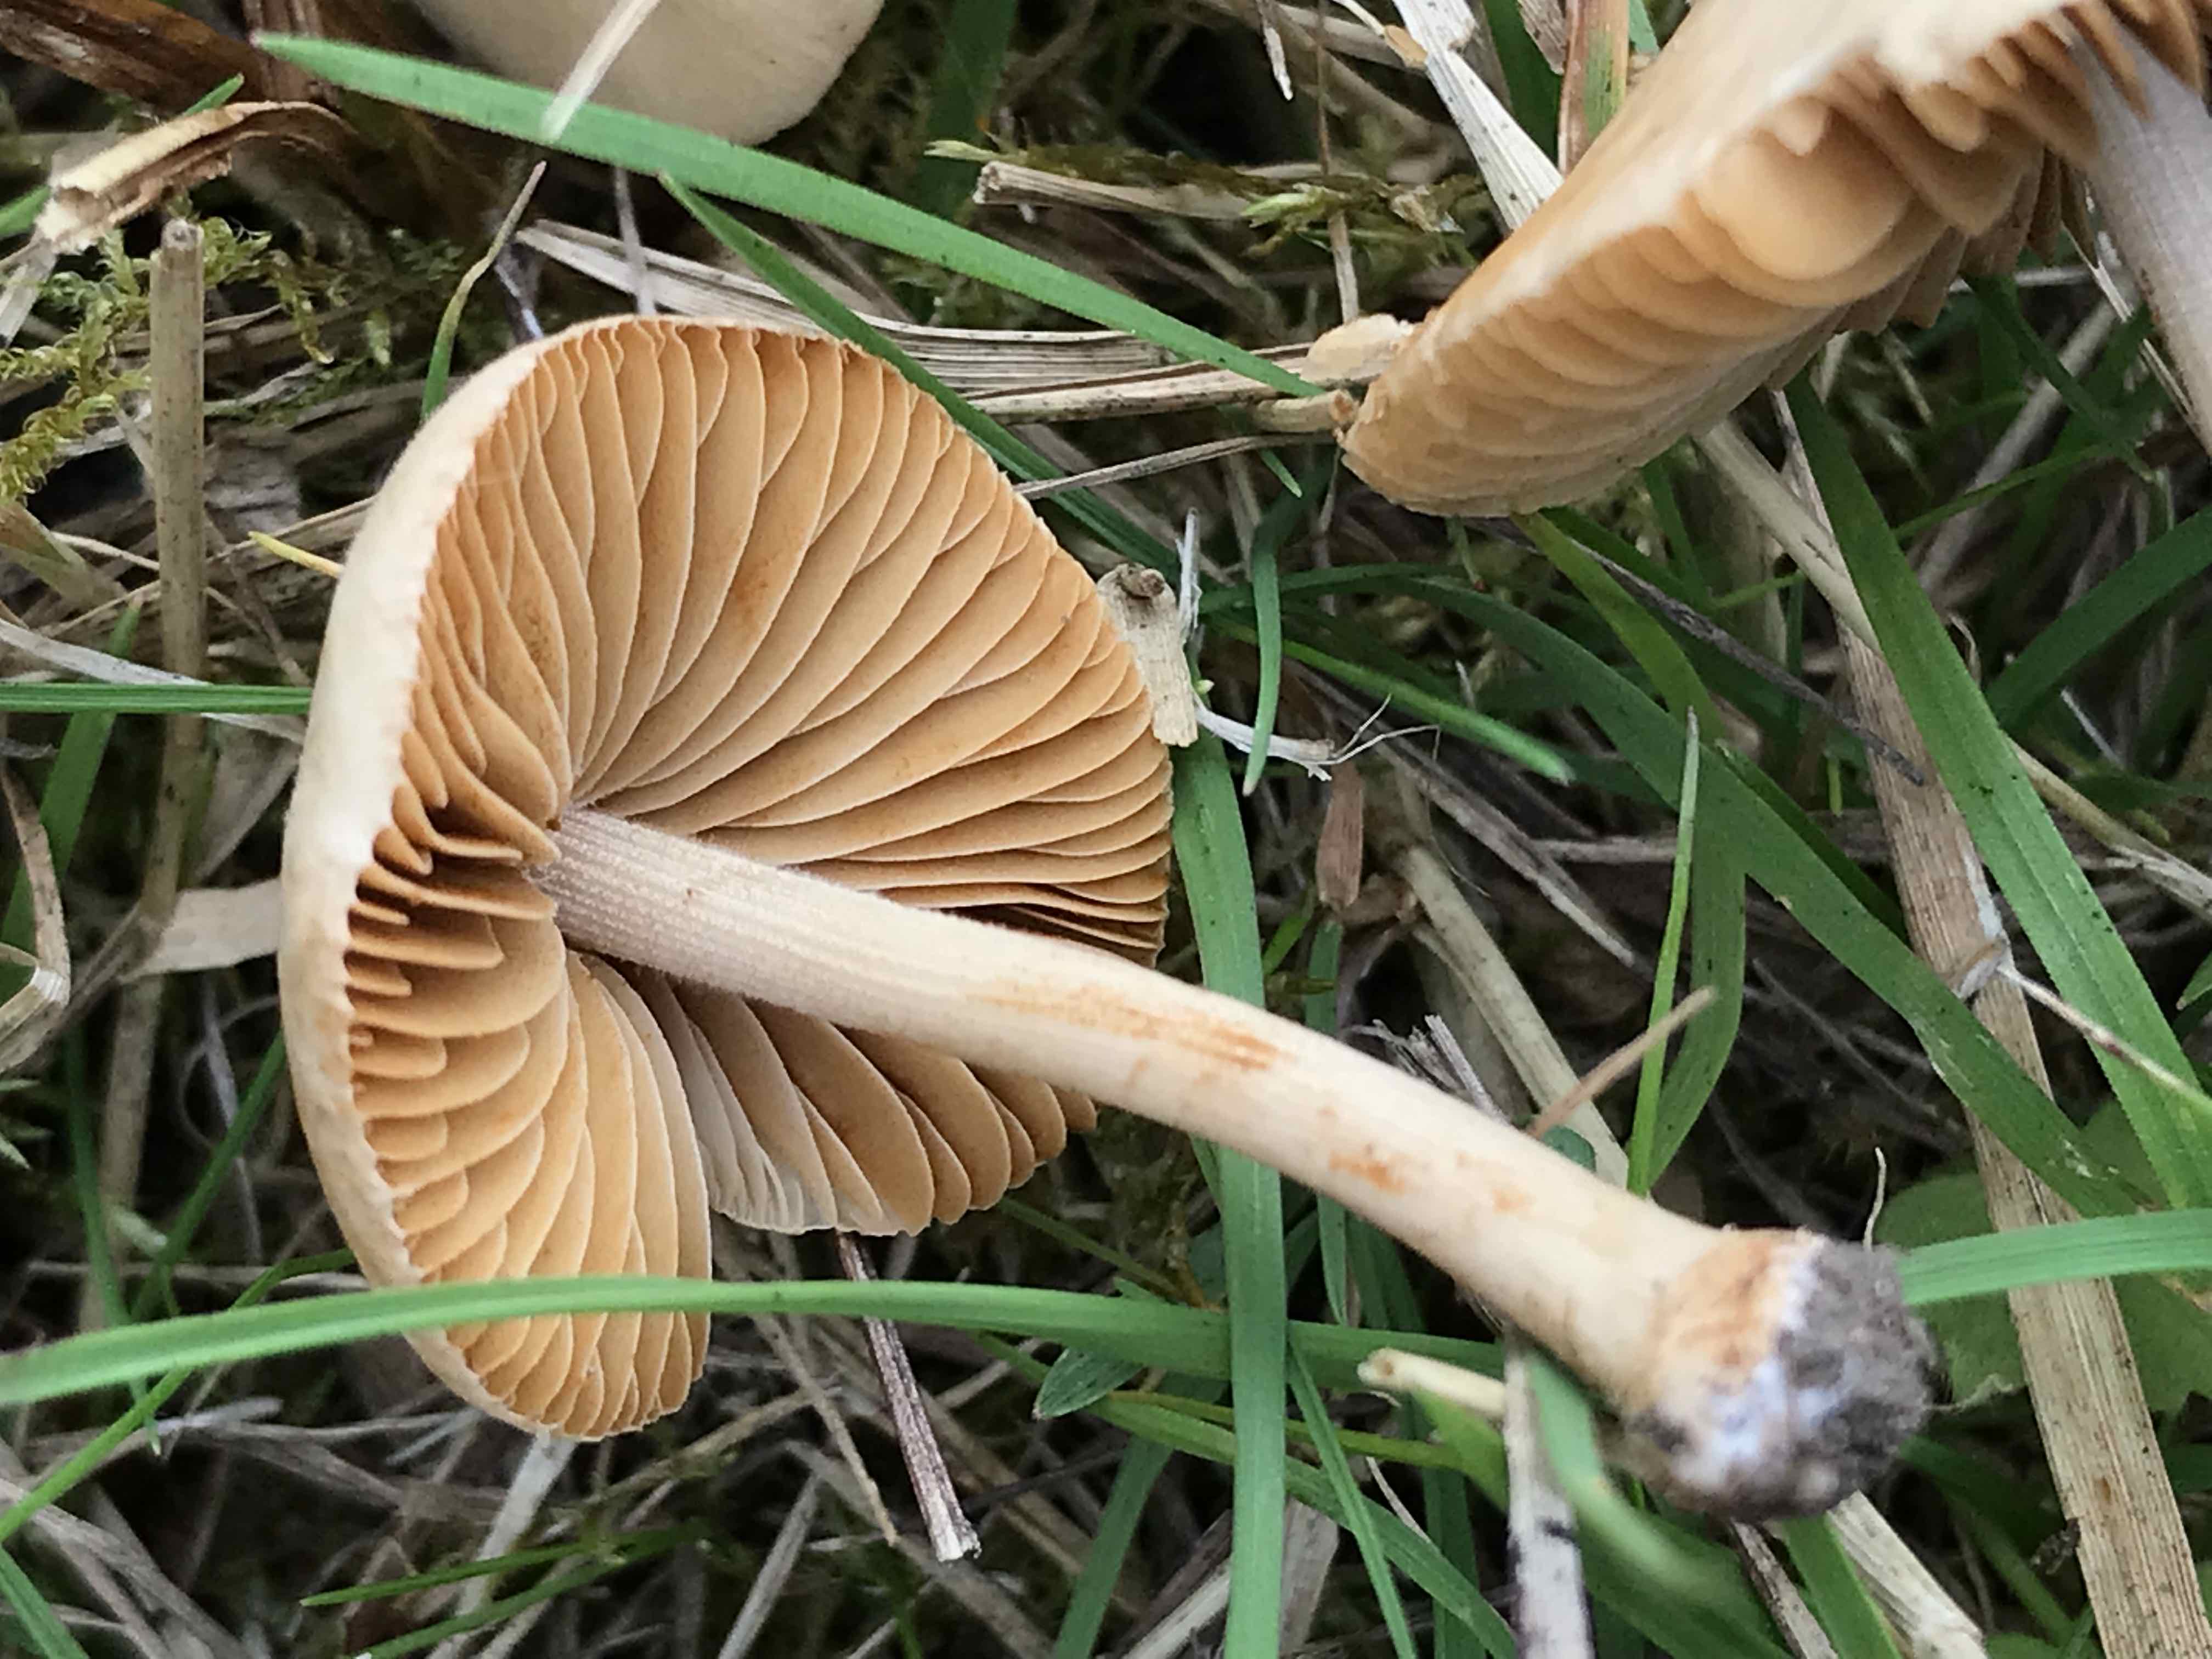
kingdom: Fungi
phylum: Basidiomycota
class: Agaricomycetes
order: Agaricales
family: Bolbitiaceae
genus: Conocybe
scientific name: Conocybe inocybeoides
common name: knold-keglehat
